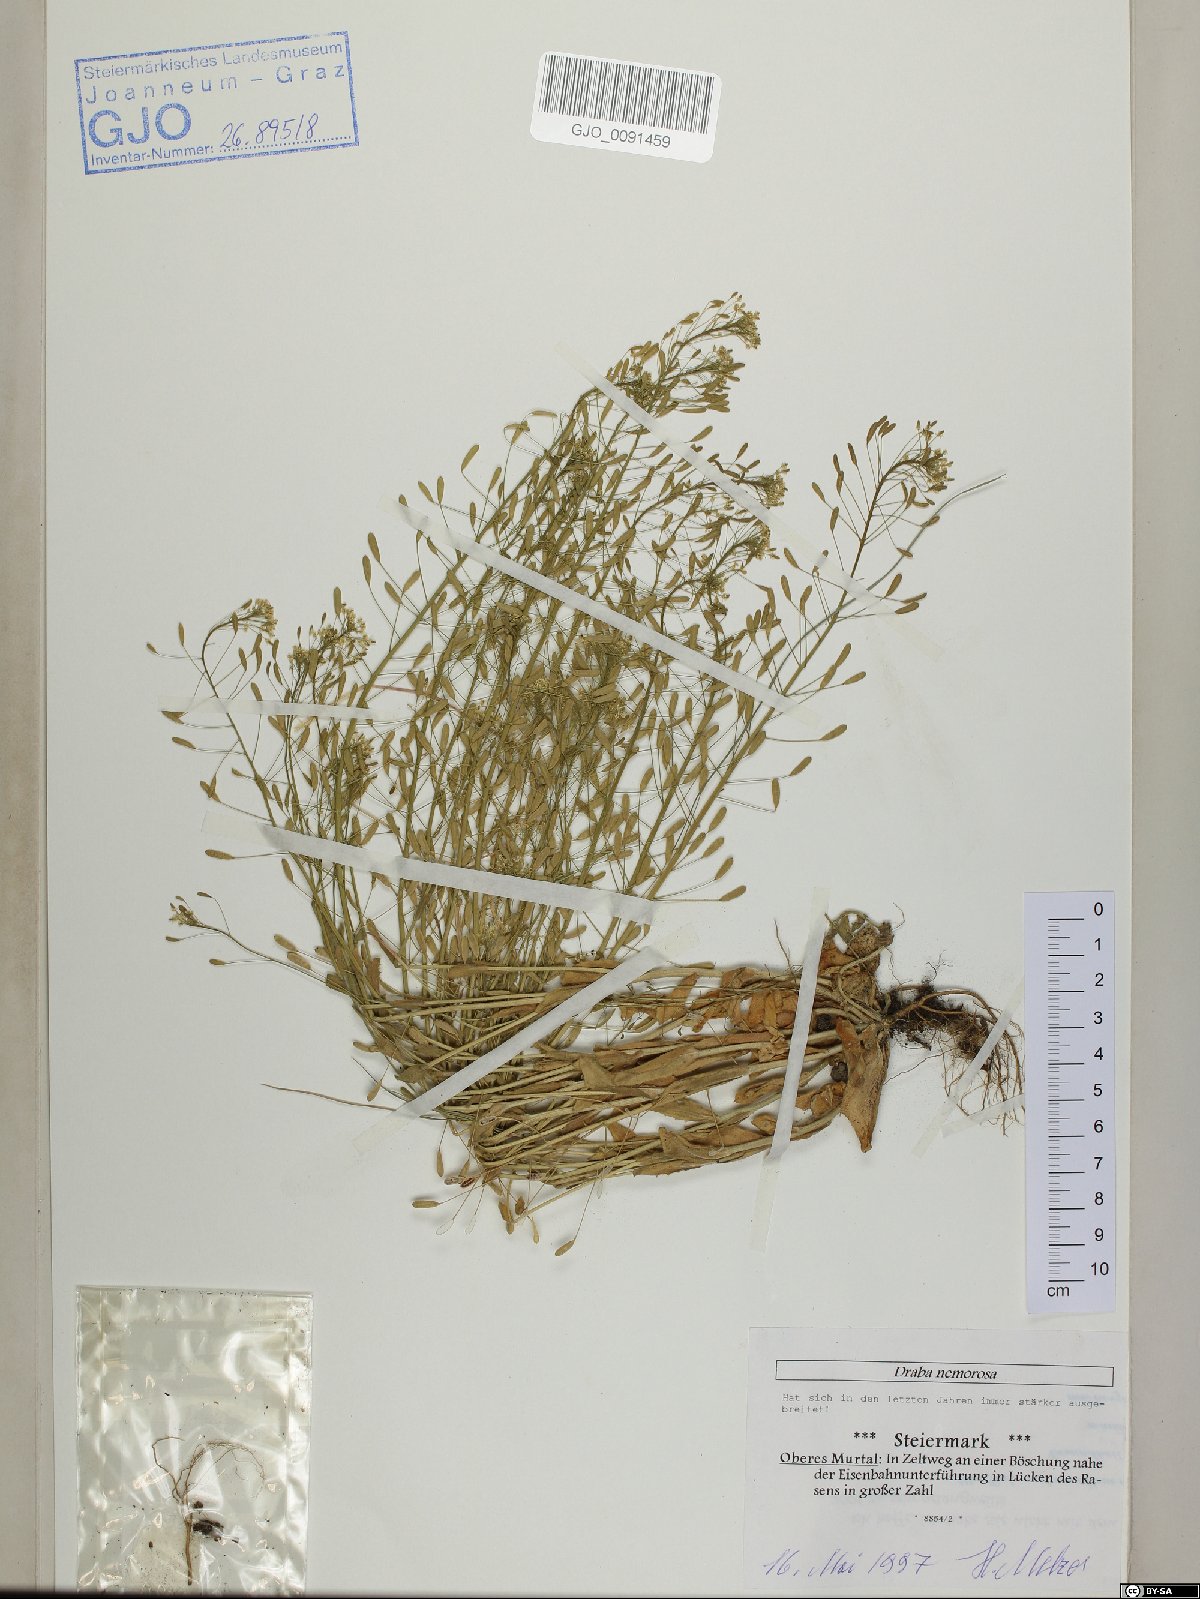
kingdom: Plantae
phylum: Tracheophyta
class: Magnoliopsida
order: Brassicales
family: Brassicaceae
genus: Draba
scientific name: Draba nemorosa
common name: Wood whitlow-grass
